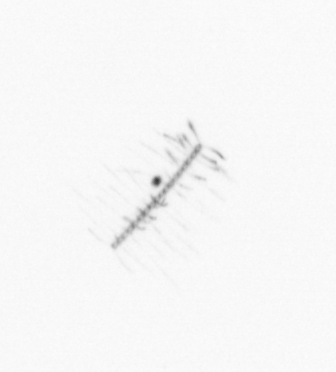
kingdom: Chromista
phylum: Ochrophyta
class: Bacillariophyceae
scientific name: Bacillariophyceae
